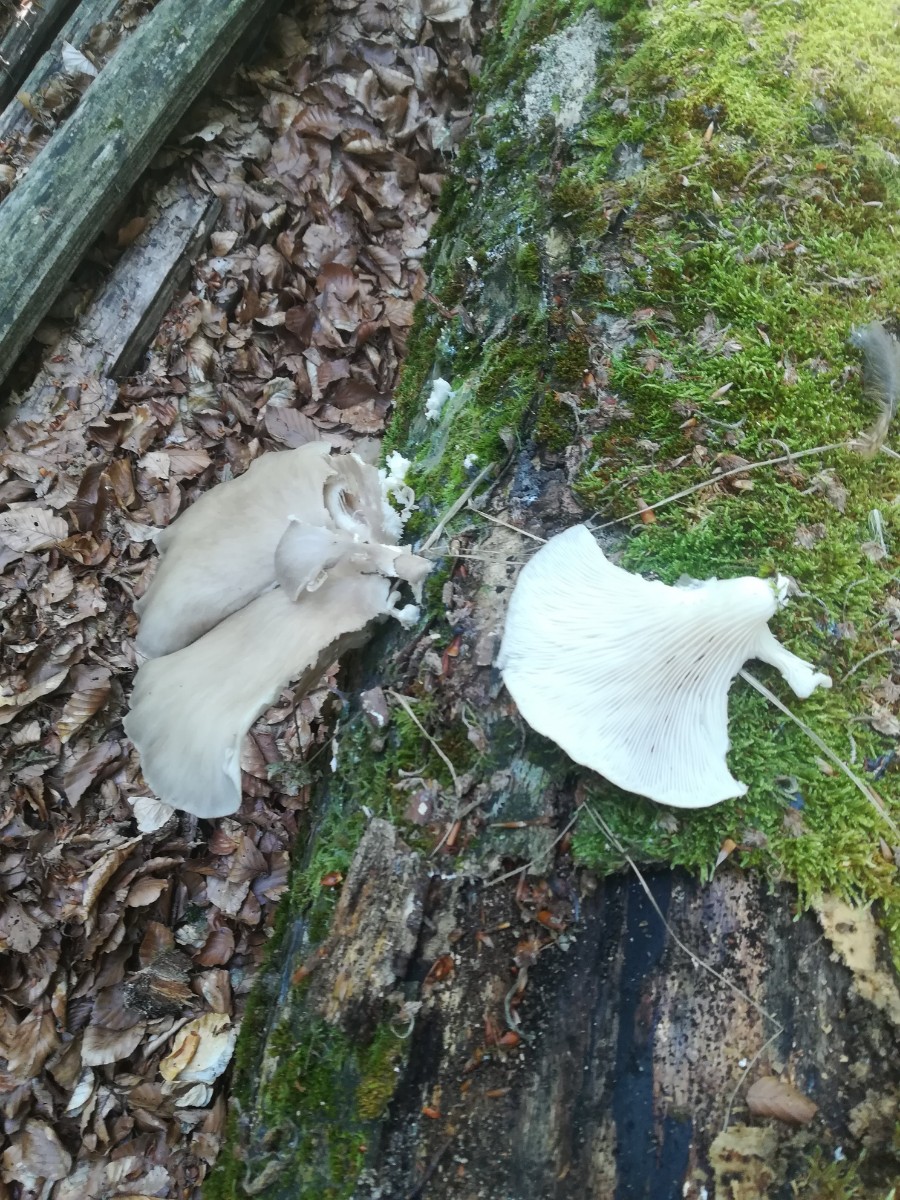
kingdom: Fungi
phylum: Basidiomycota
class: Agaricomycetes
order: Agaricales
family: Pleurotaceae
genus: Pleurotus
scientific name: Pleurotus pulmonarius
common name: sommer-østershat
